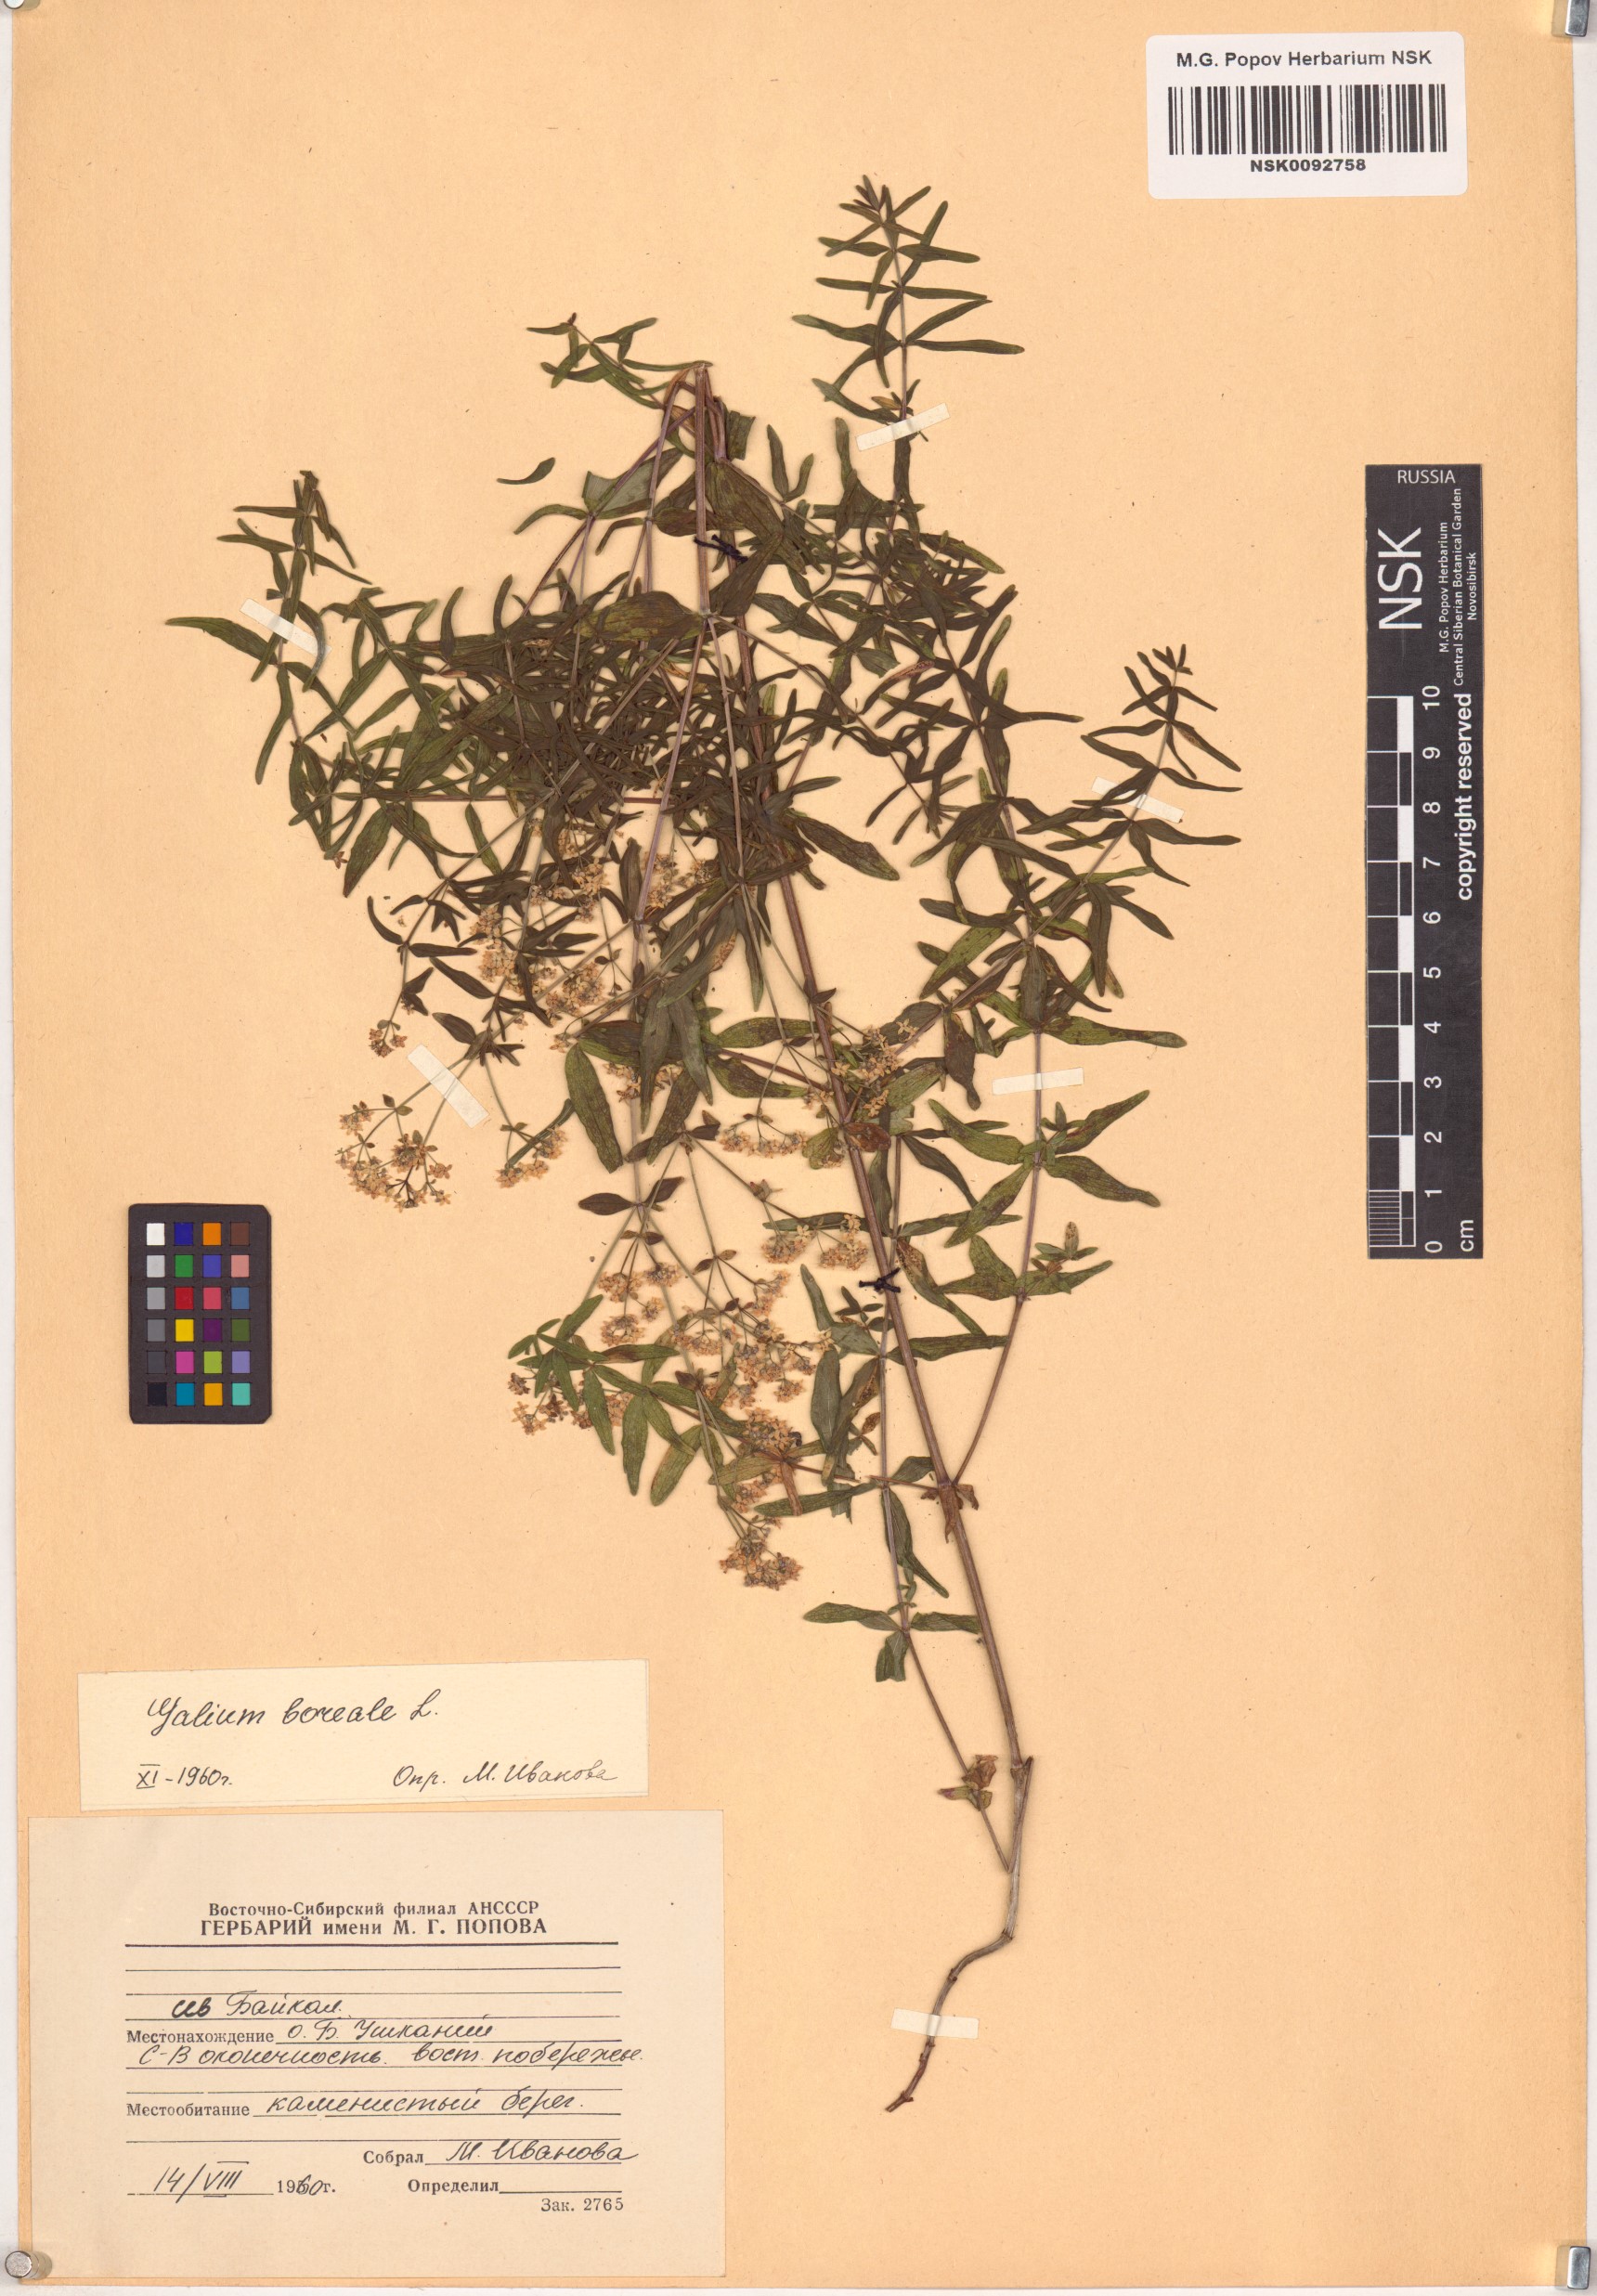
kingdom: Plantae
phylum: Tracheophyta
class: Magnoliopsida
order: Gentianales
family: Rubiaceae
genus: Galium
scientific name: Galium boreale
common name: Northern bedstraw
